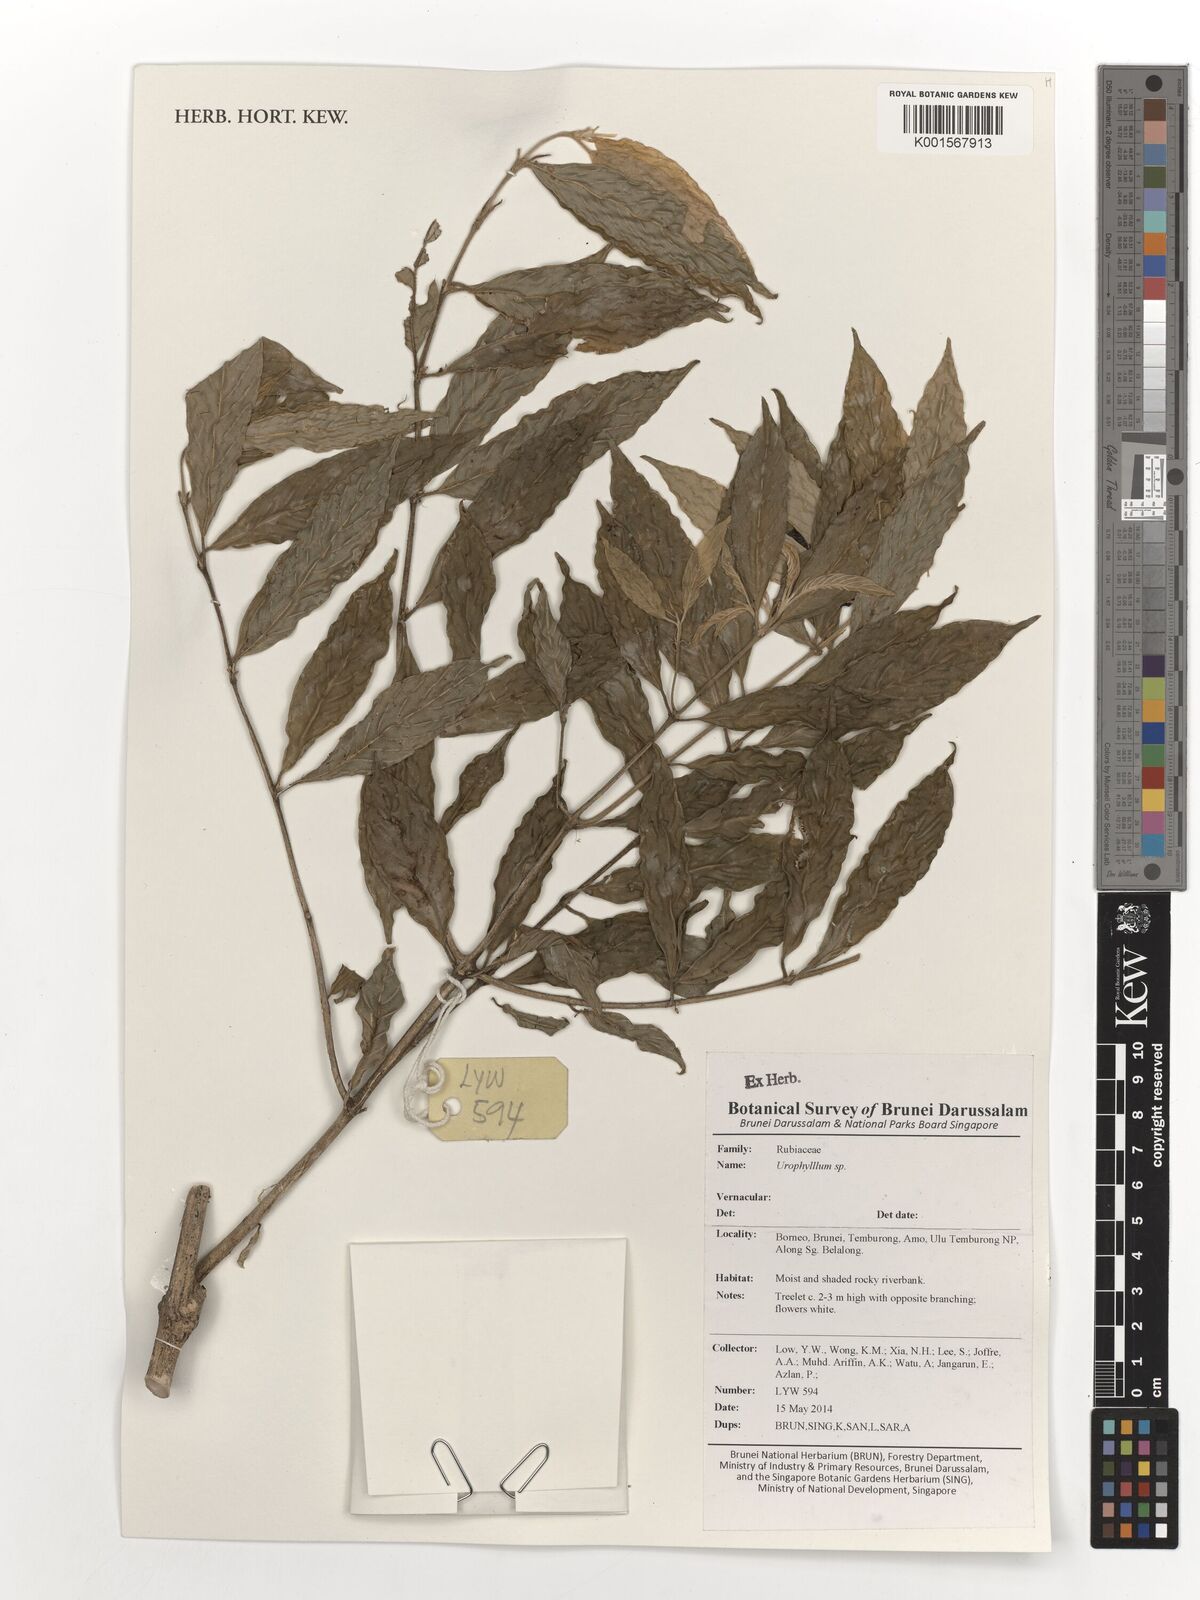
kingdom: Plantae
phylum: Tracheophyta
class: Magnoliopsida
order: Gentianales
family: Rubiaceae
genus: Urophyllum
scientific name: Urophyllum
